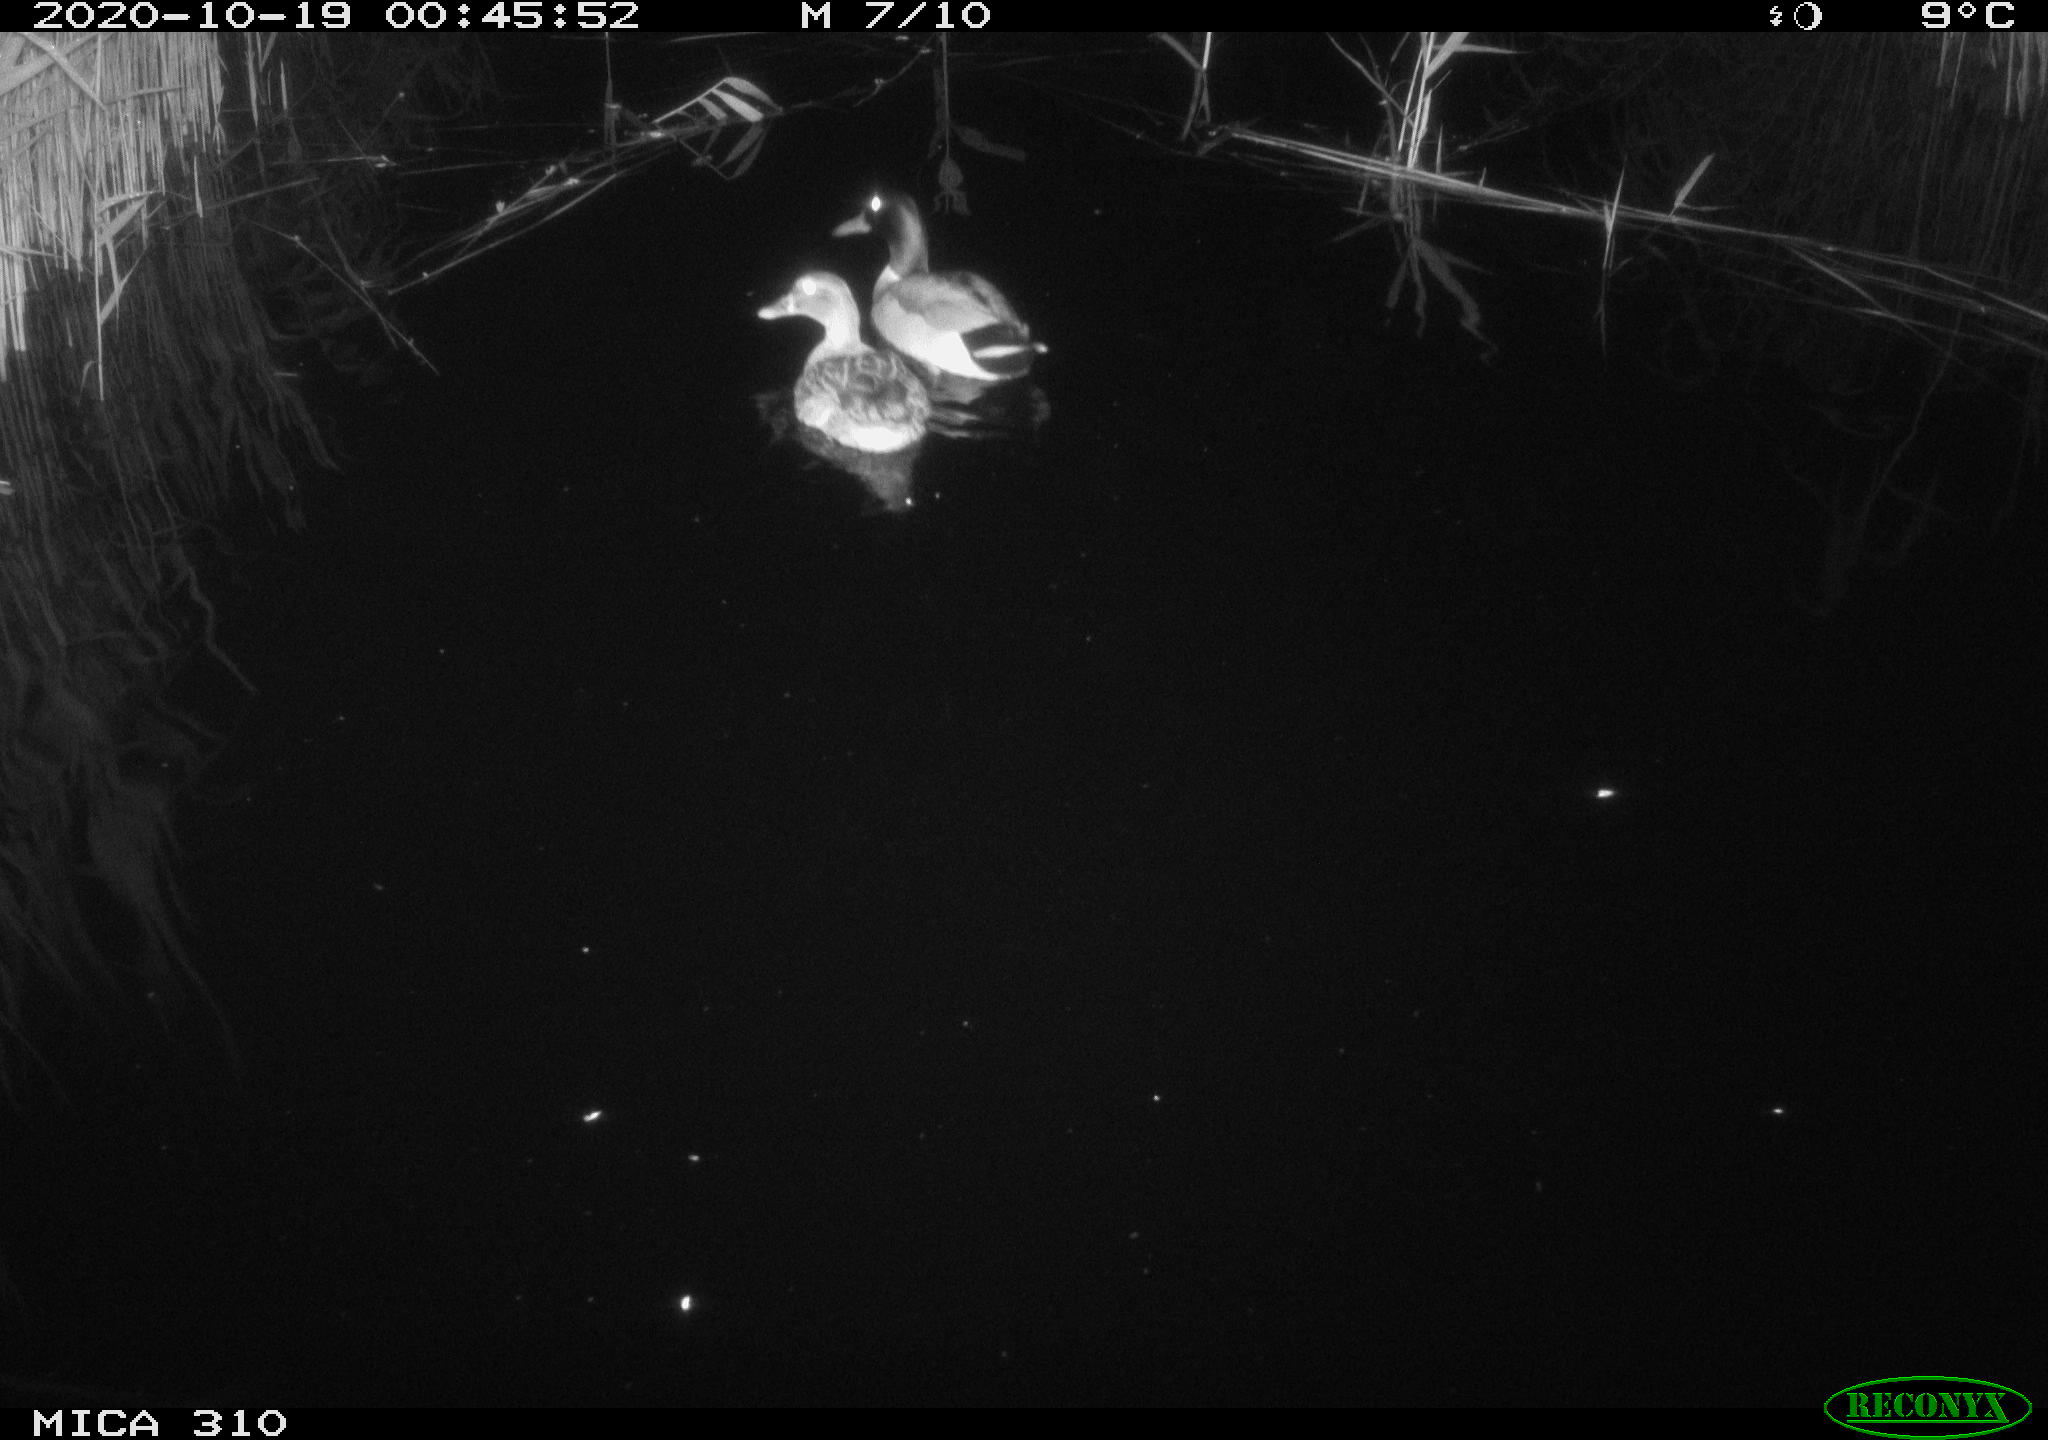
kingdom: Animalia
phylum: Chordata
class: Aves
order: Anseriformes
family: Anatidae
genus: Anas
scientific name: Anas platyrhynchos
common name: Mallard
